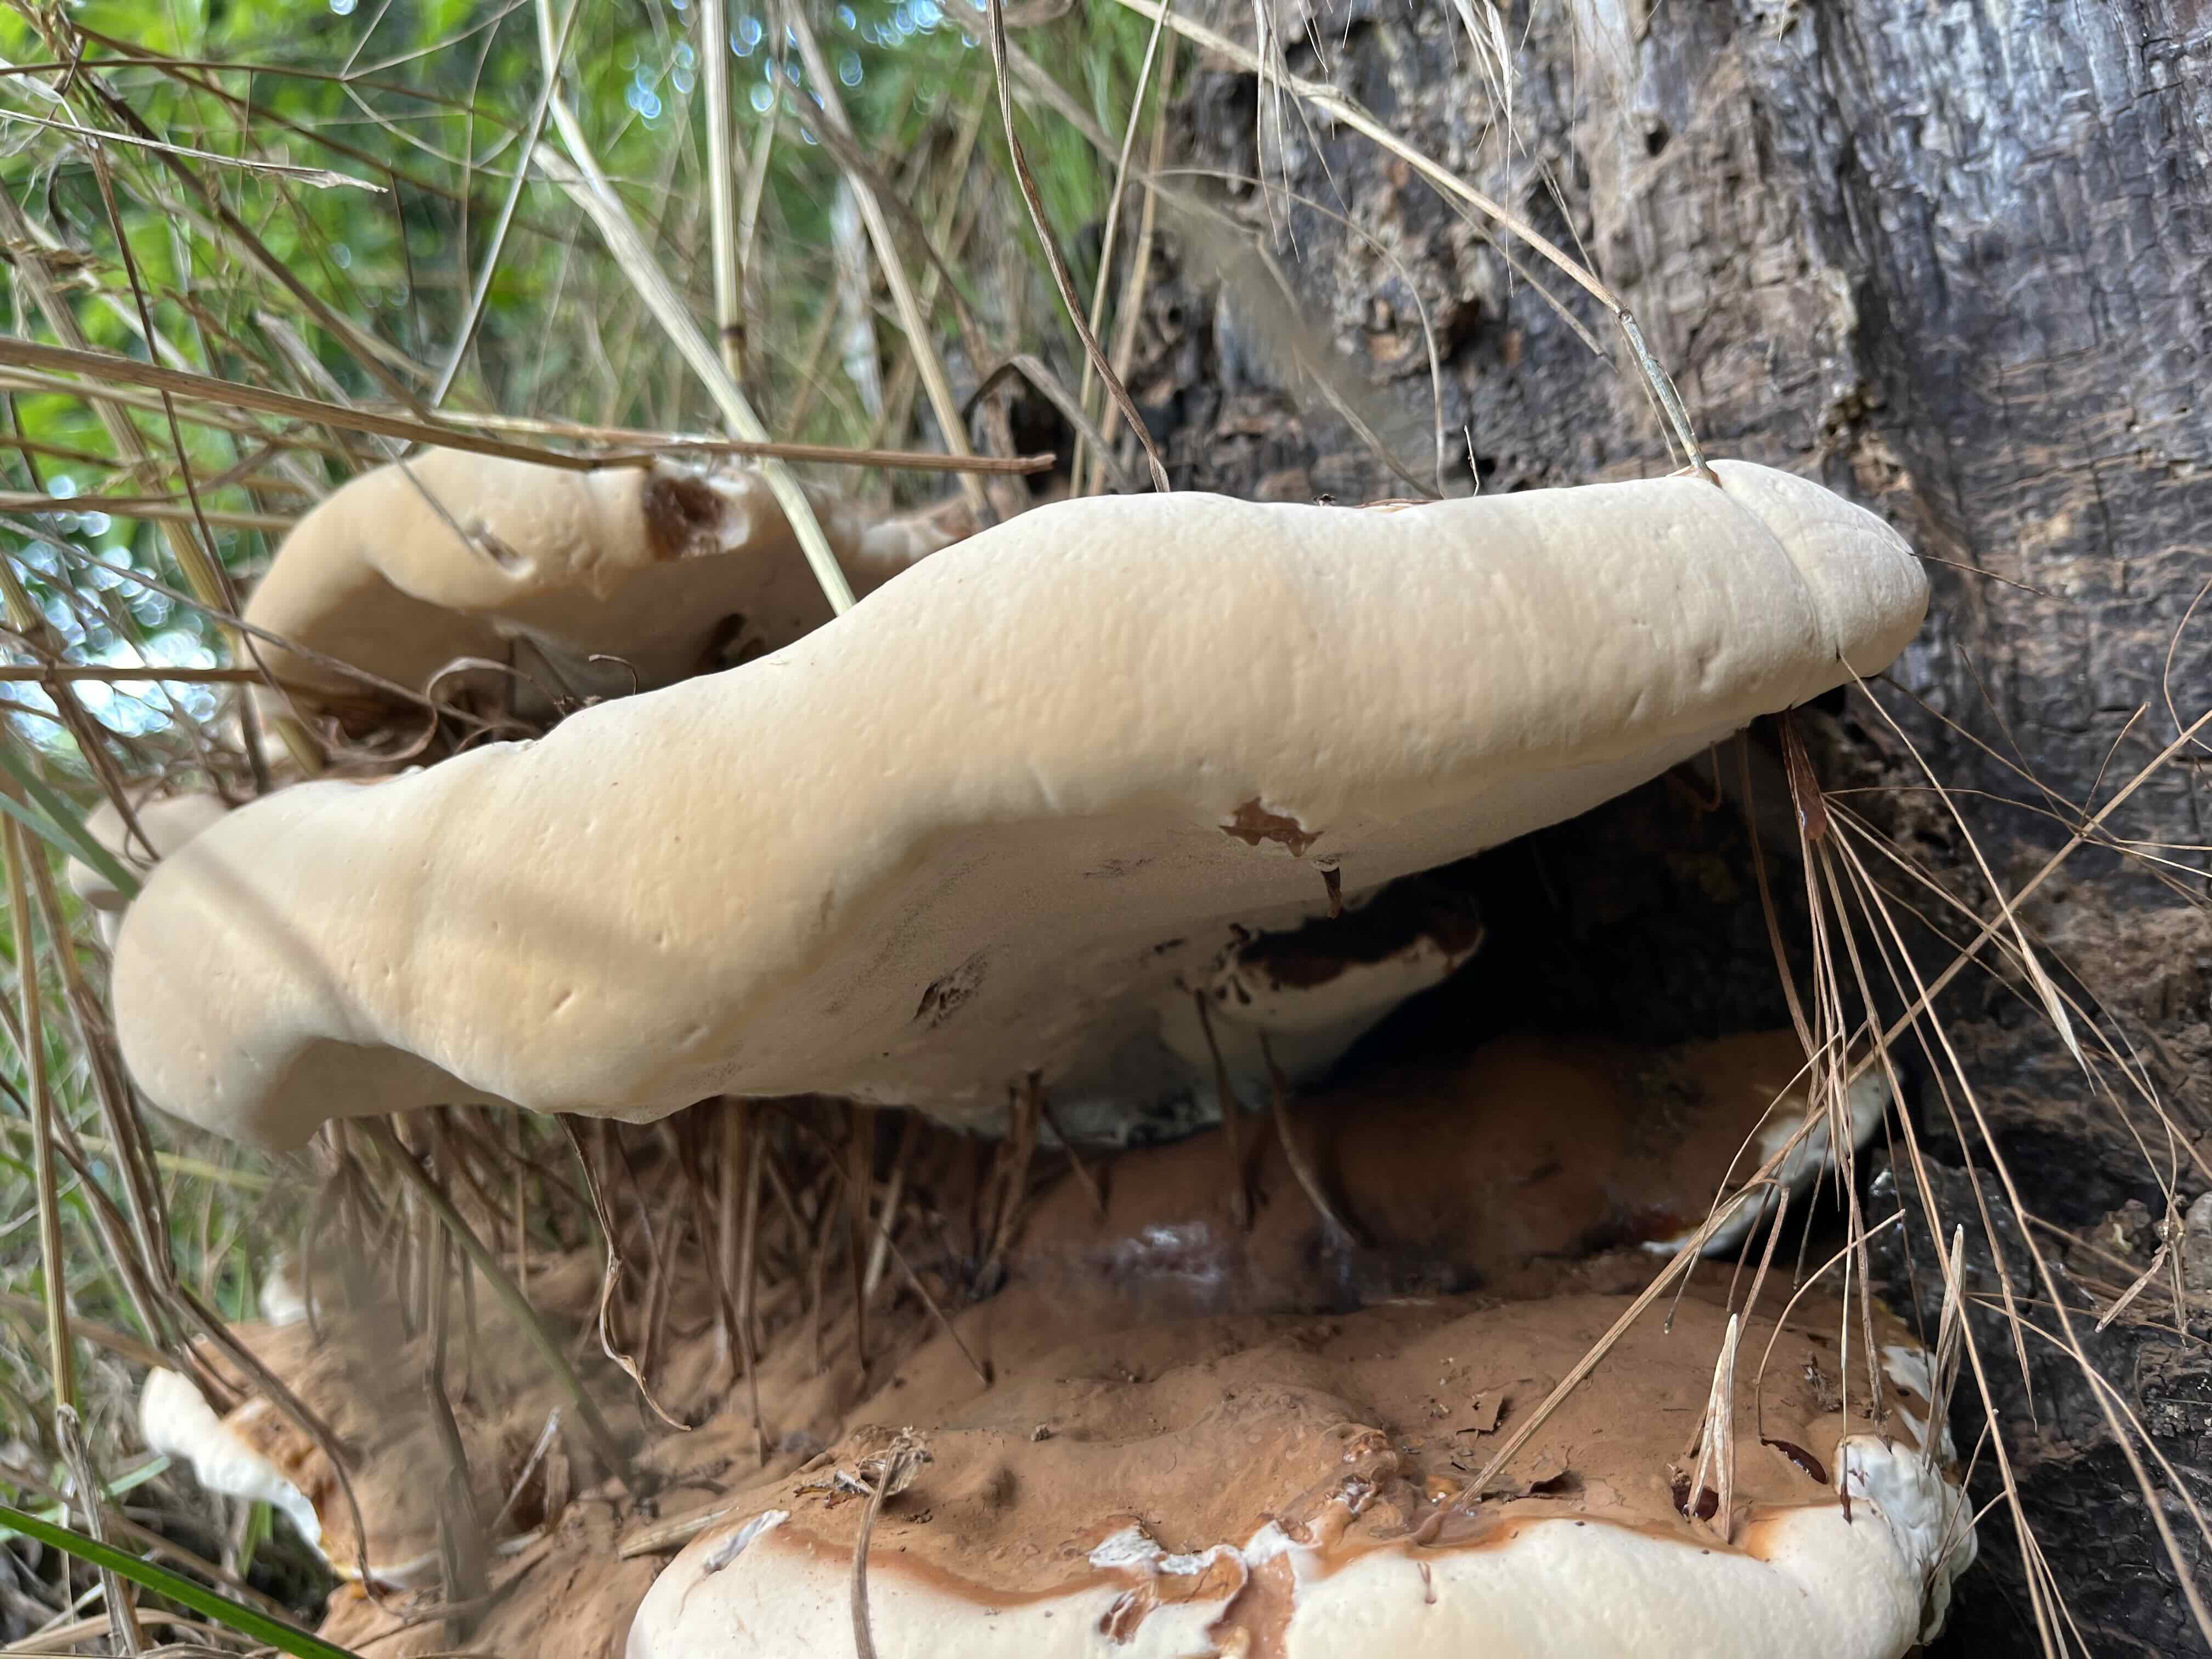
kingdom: Fungi
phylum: Basidiomycota
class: Agaricomycetes
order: Polyporales
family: Polyporaceae
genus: Ganoderma
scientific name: Ganoderma resinaceum
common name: gyldenbrun lakporesvamp
